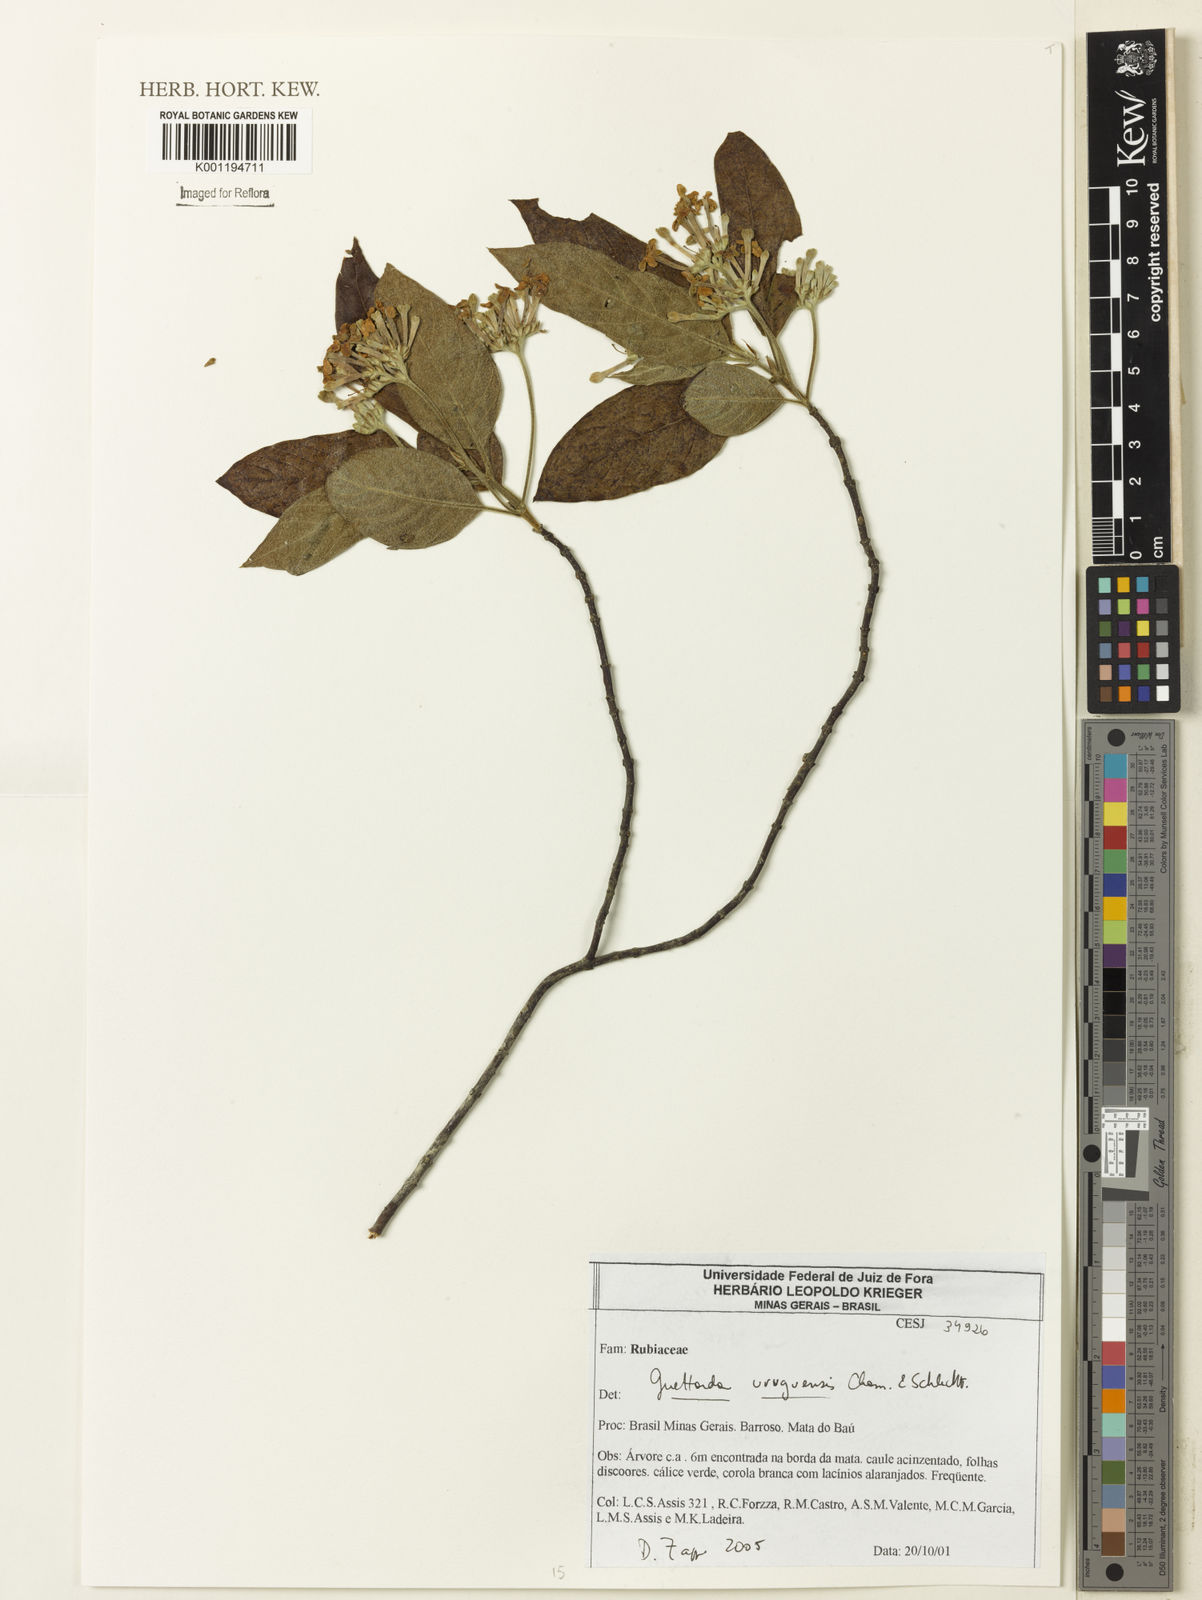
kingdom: Plantae
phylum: Tracheophyta
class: Magnoliopsida
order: Gentianales
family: Rubiaceae
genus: Guettarda
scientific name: Guettarda uruguensis
